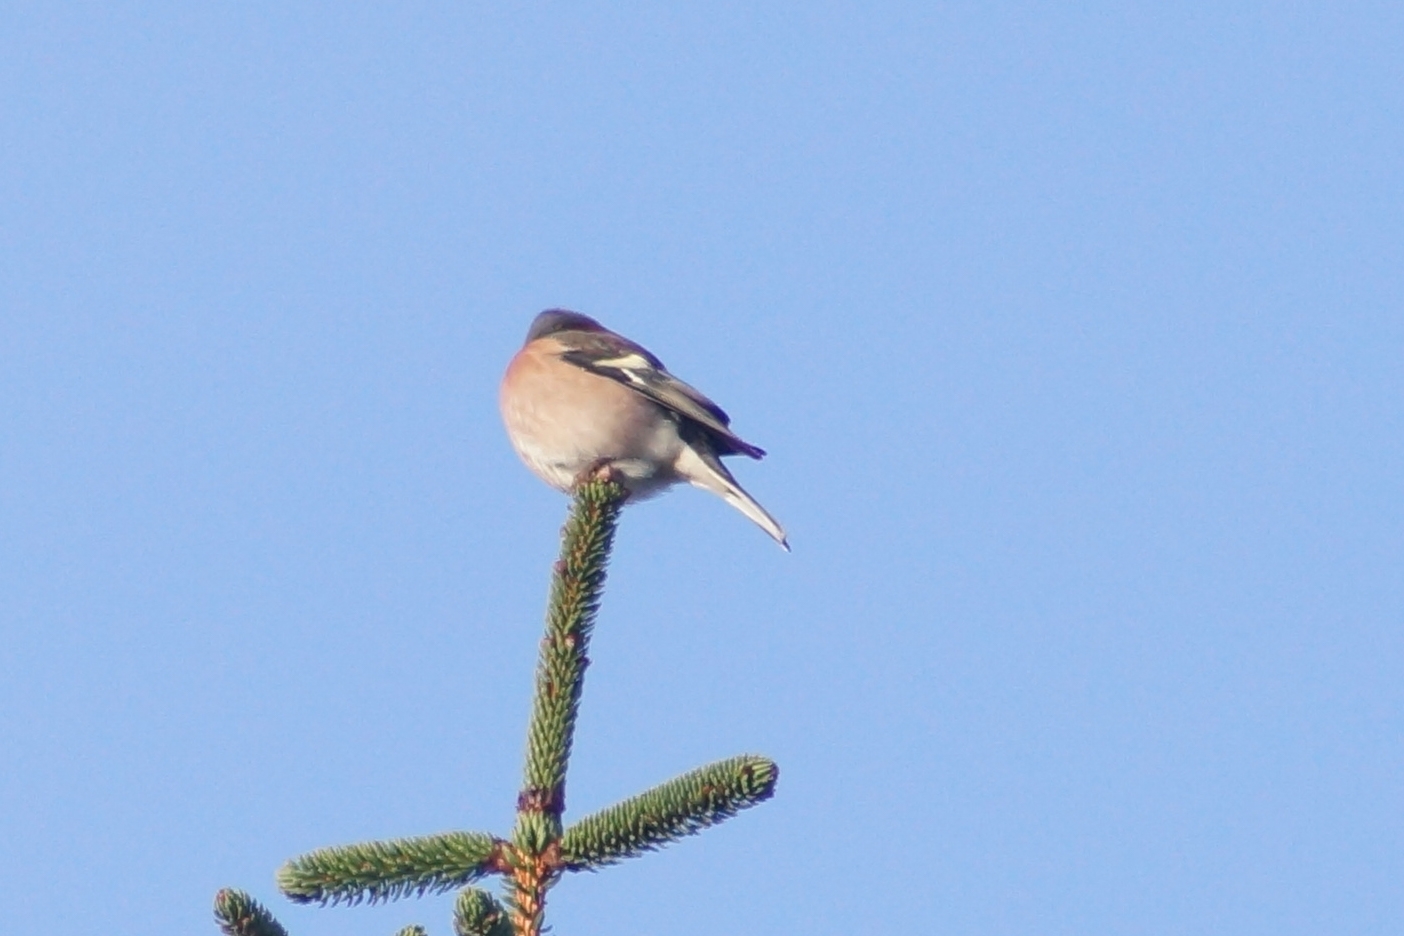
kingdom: Animalia
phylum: Chordata
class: Aves
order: Passeriformes
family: Fringillidae
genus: Fringilla
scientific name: Fringilla coelebs
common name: Bogfinke
